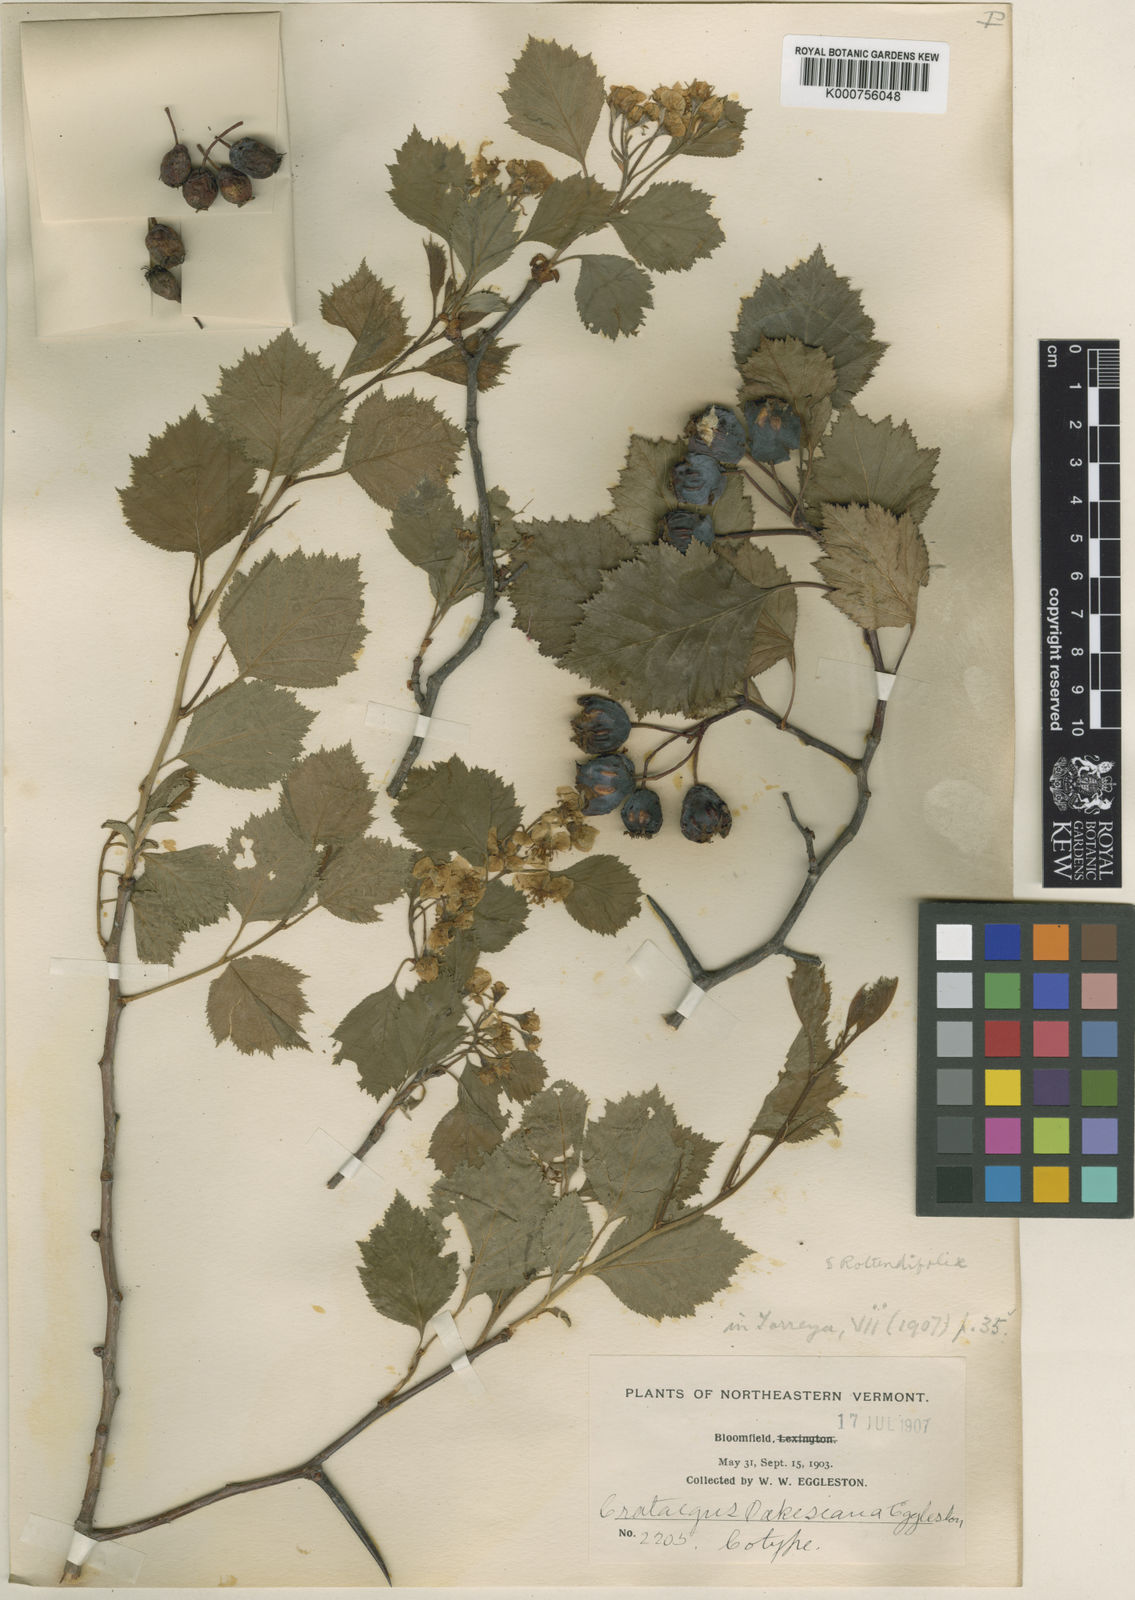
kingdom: Plantae
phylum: Tracheophyta
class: Magnoliopsida
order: Rosales
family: Rosaceae
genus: Crataegus
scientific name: Crataegus irrasa
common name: Unshorn hawthorn
